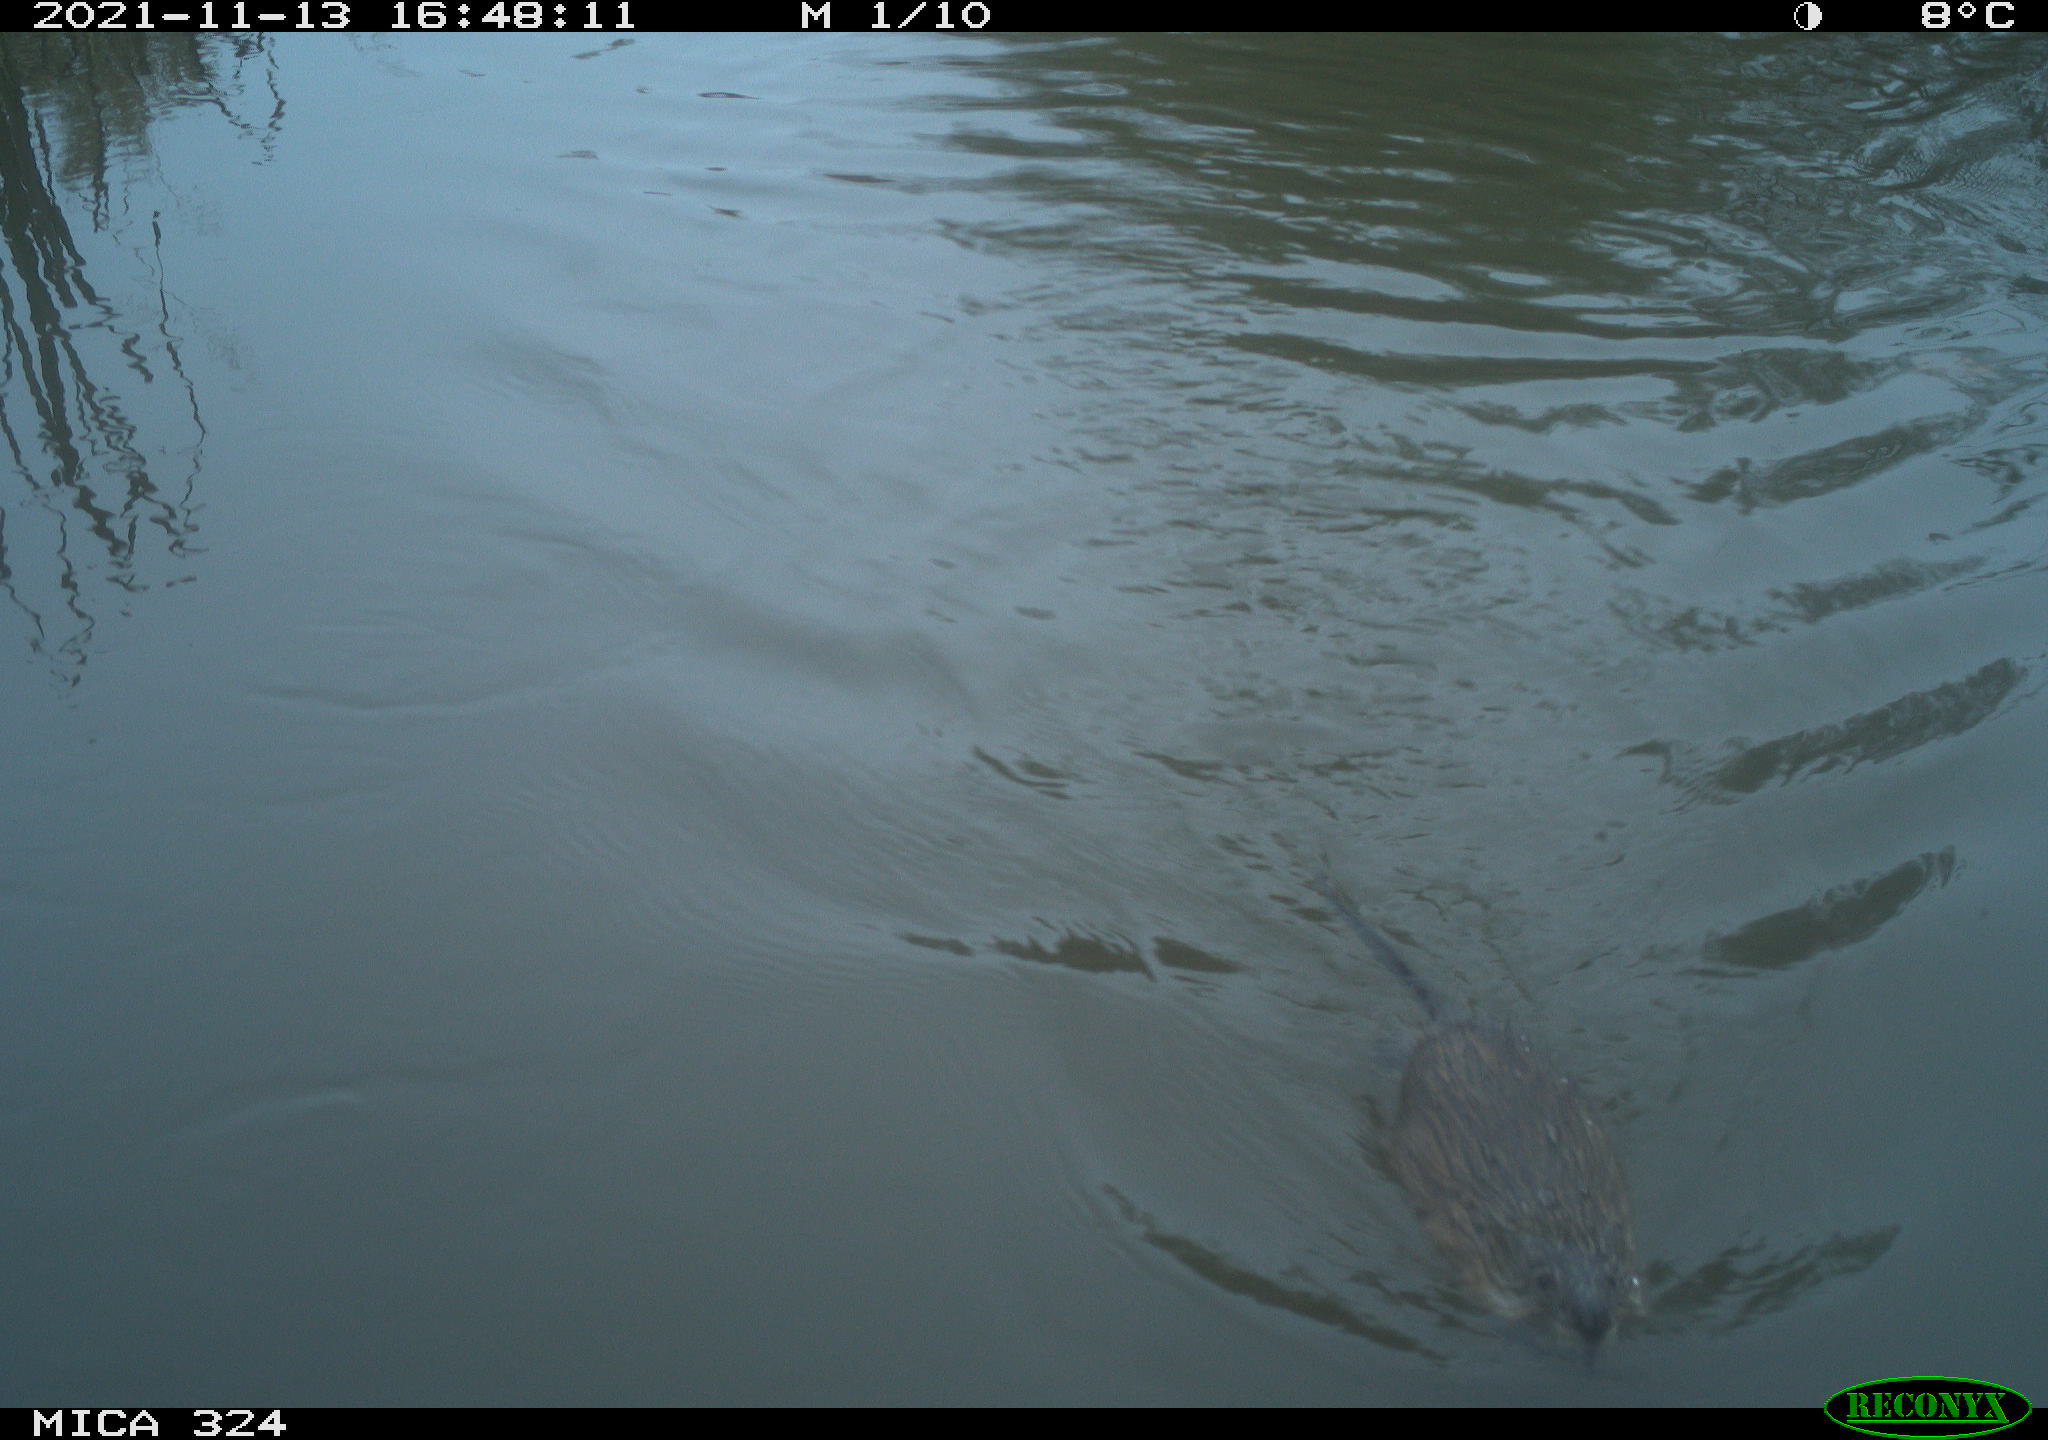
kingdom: Animalia
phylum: Chordata
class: Mammalia
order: Rodentia
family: Cricetidae
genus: Ondatra
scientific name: Ondatra zibethicus
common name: Muskrat
